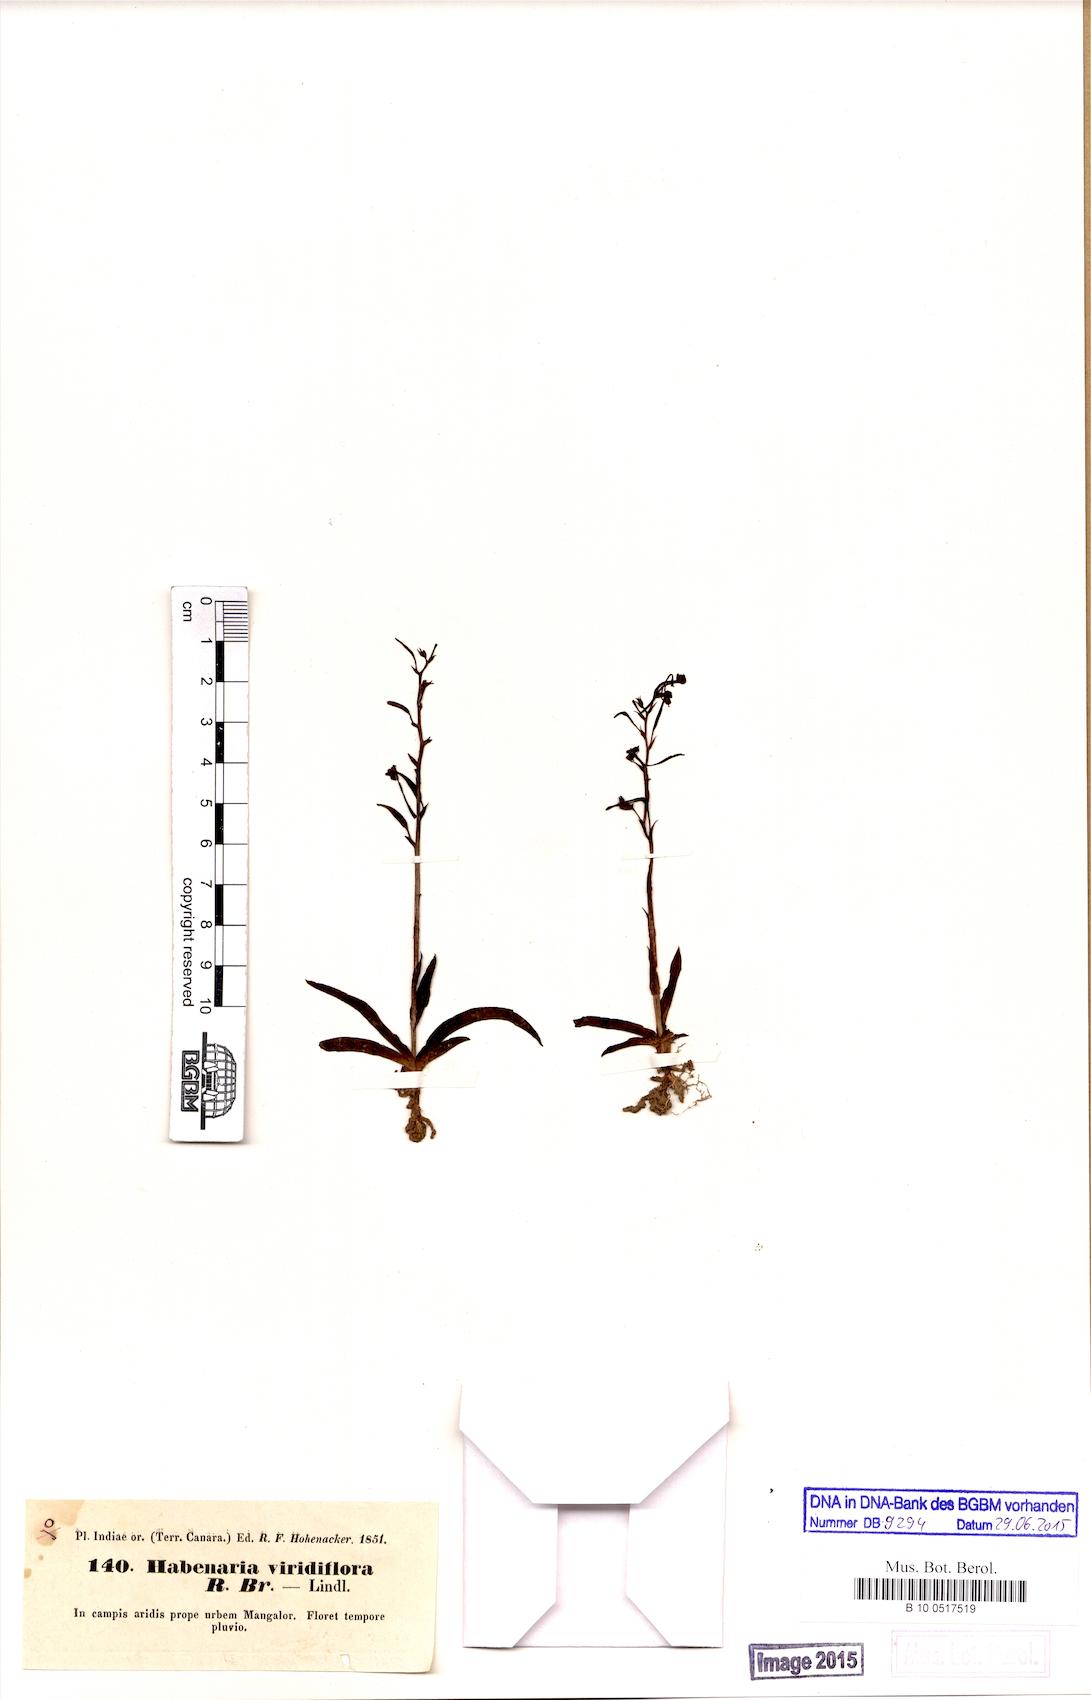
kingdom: Plantae
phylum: Tracheophyta
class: Liliopsida
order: Asparagales
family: Orchidaceae
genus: Habenaria
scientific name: Habenaria viridiflora
